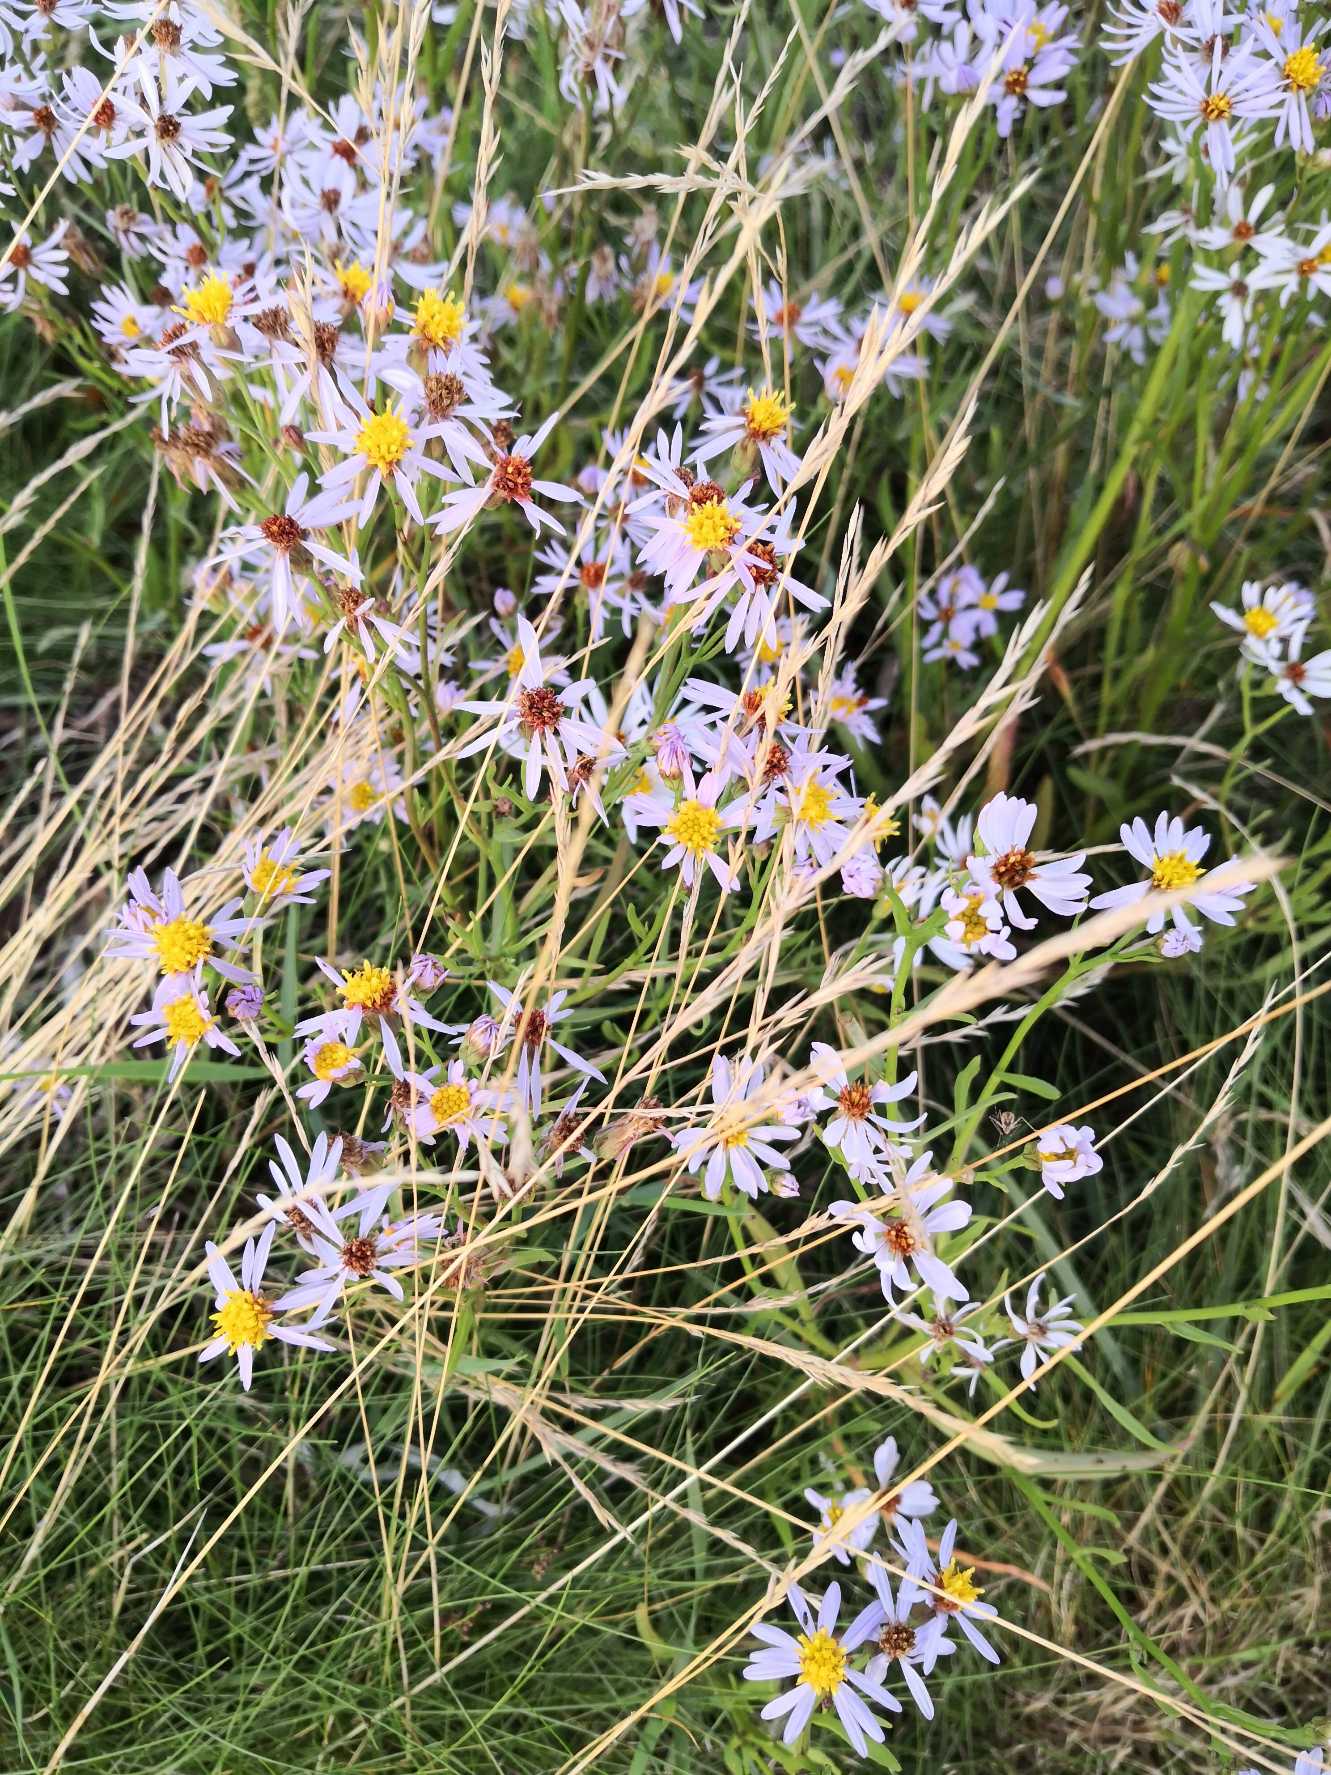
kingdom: Plantae
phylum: Tracheophyta
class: Magnoliopsida
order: Asterales
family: Asteraceae
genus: Tripolium
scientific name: Tripolium pannonicum
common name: Strandasters
